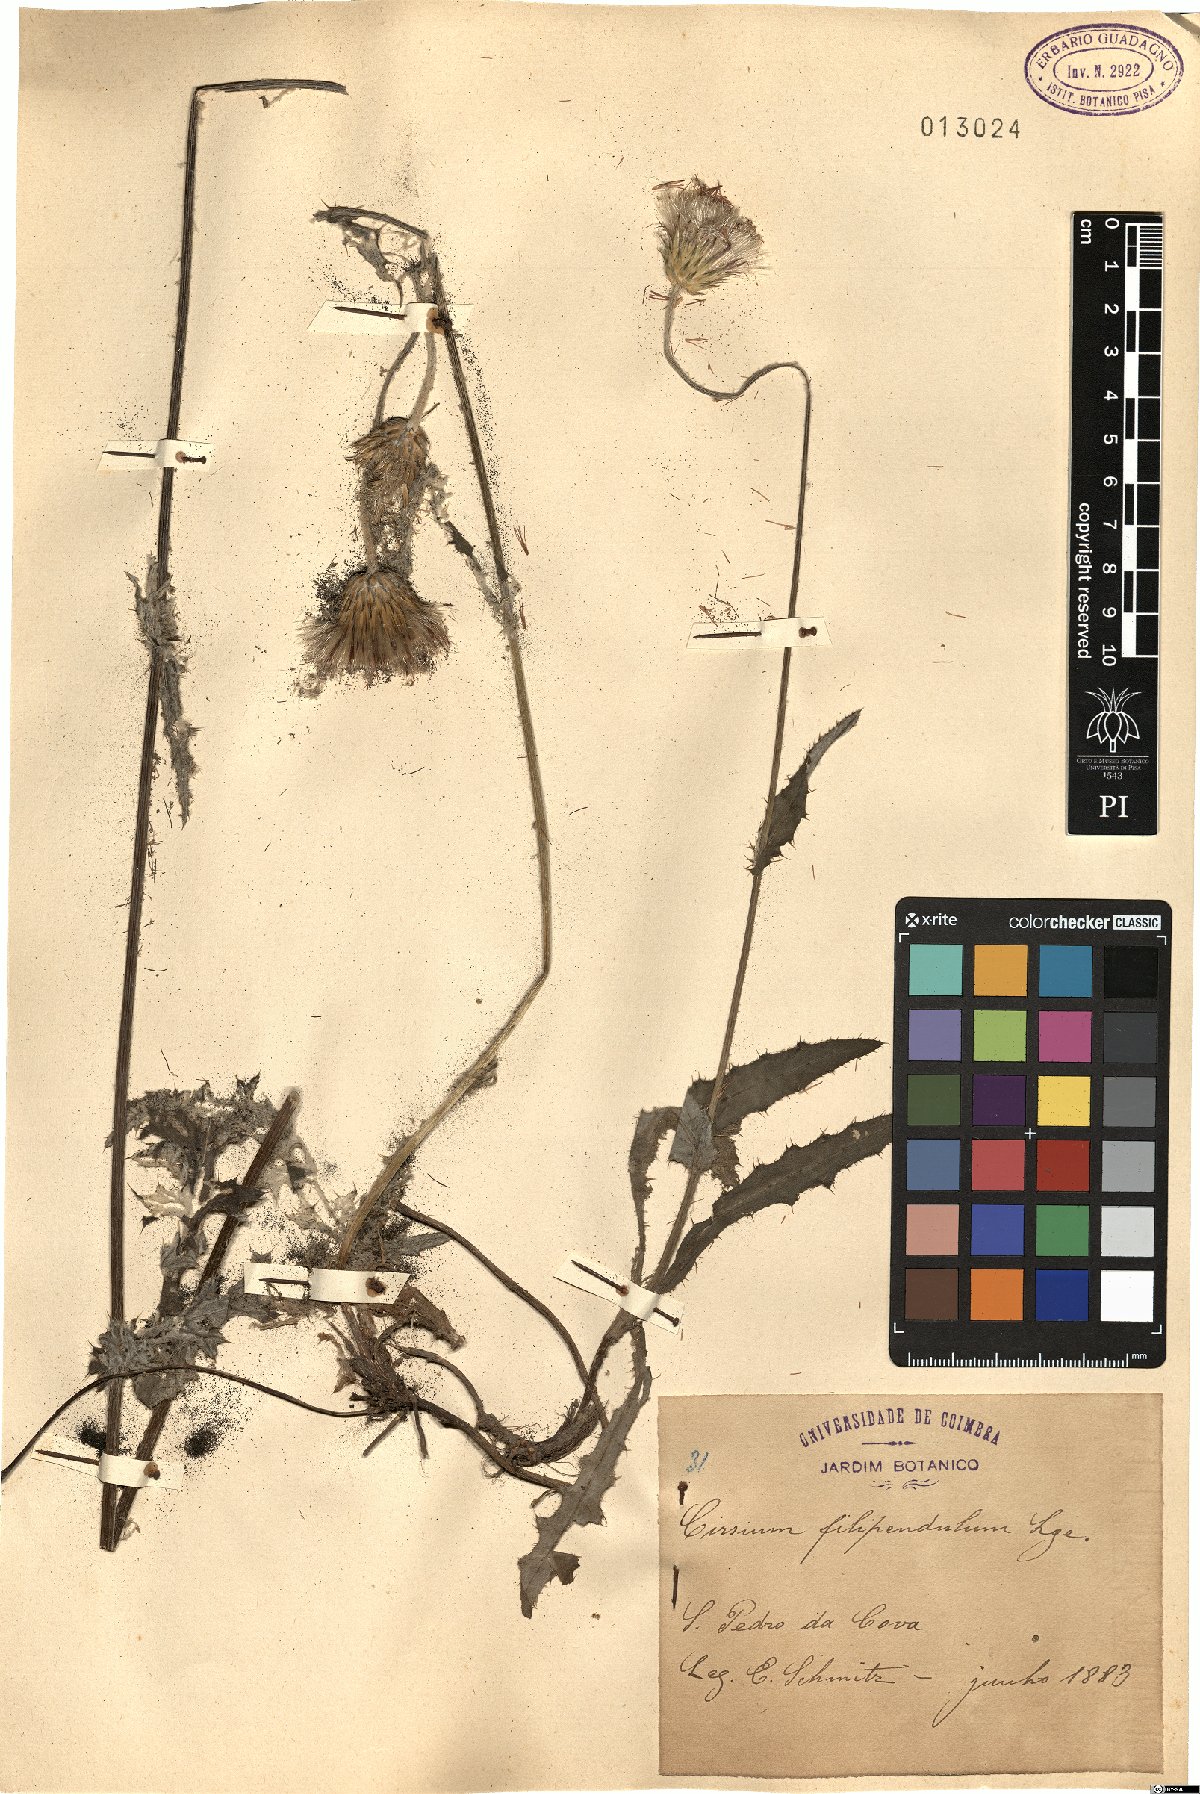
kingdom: Plantae
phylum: Tracheophyta
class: Magnoliopsida
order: Asterales
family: Asteraceae
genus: Cirsium
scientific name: Cirsium filipendulum
